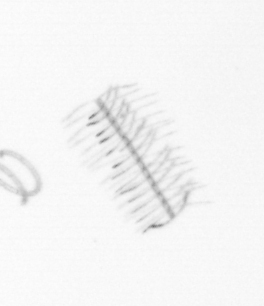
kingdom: Chromista
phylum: Ochrophyta
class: Bacillariophyceae
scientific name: Bacillariophyceae
